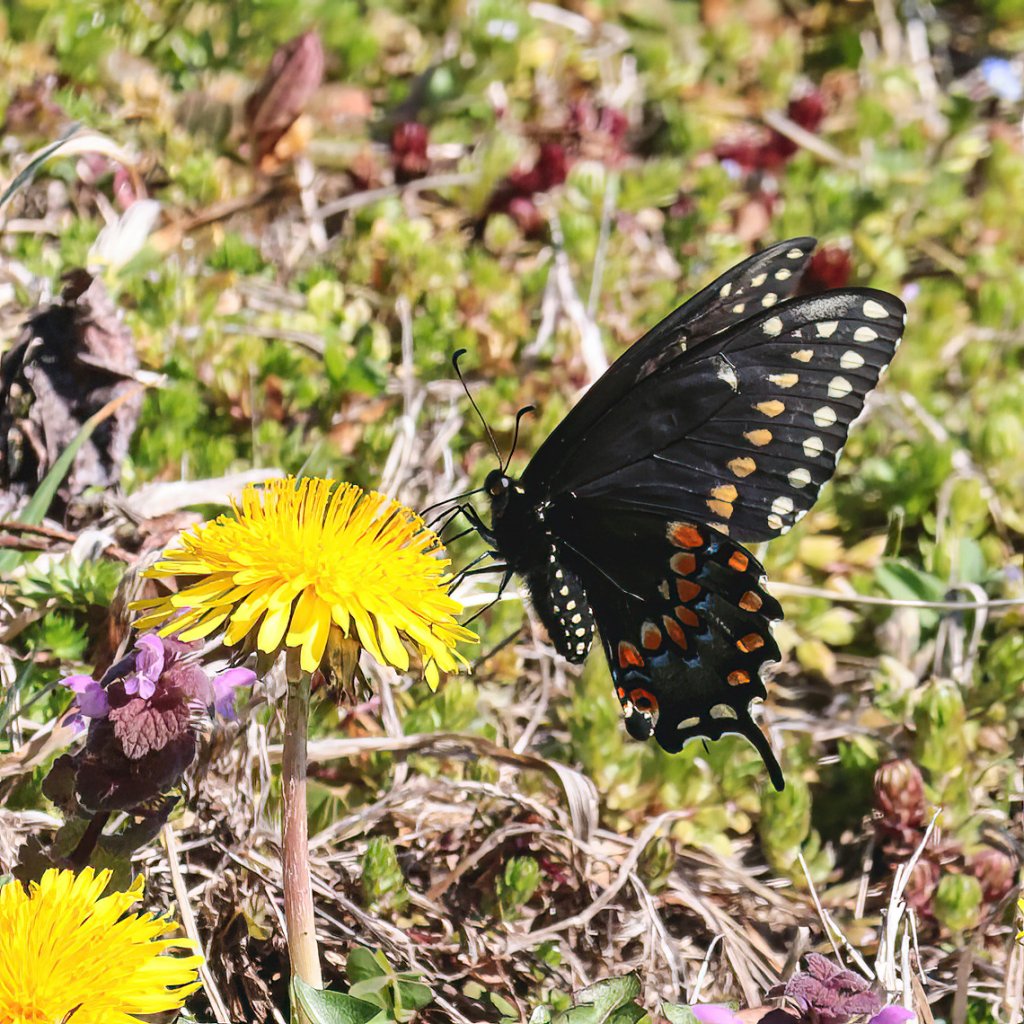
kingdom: Animalia
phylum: Arthropoda
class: Insecta
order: Lepidoptera
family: Papilionidae
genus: Papilio
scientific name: Papilio polyxenes
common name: Black Swallowtail
